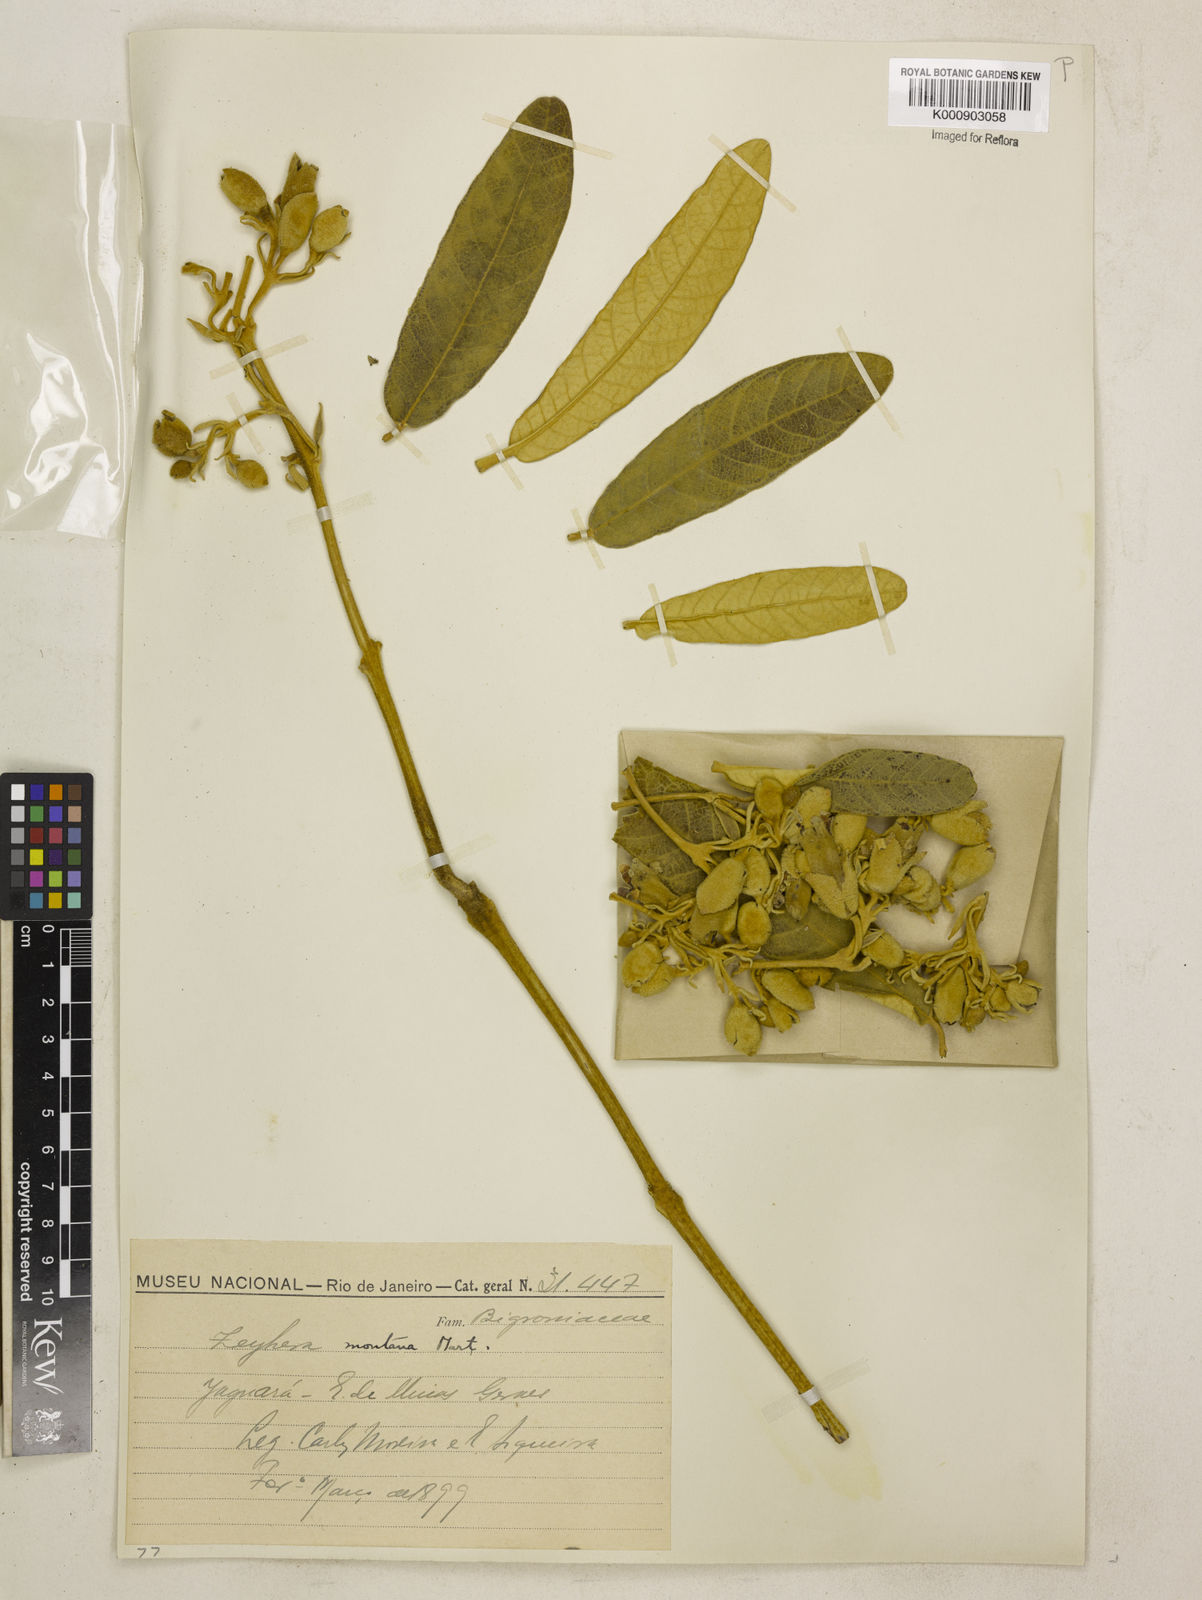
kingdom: Plantae
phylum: Tracheophyta
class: Magnoliopsida
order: Lamiales
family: Bignoniaceae
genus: Zeyheria
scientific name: Zeyheria
